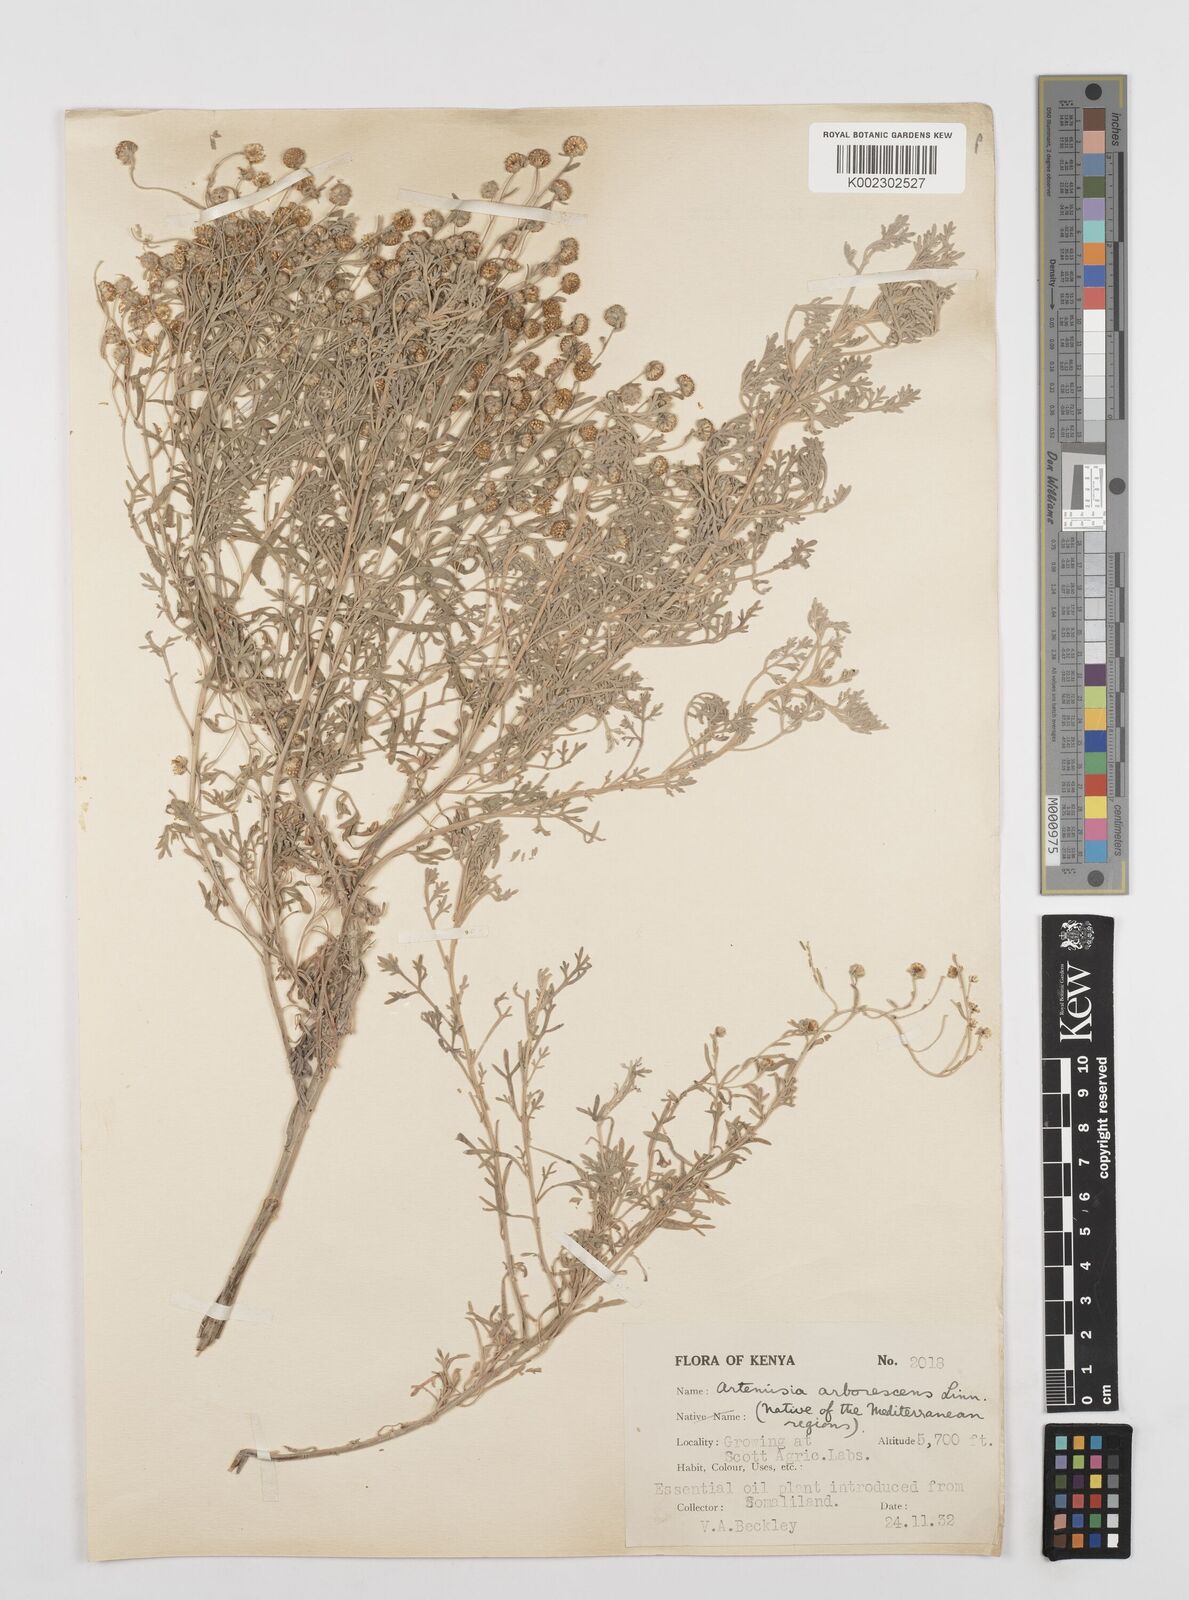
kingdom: Plantae
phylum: Tracheophyta
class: Magnoliopsida
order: Asterales
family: Asteraceae
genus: Artemisia
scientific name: Artemisia arborescens
